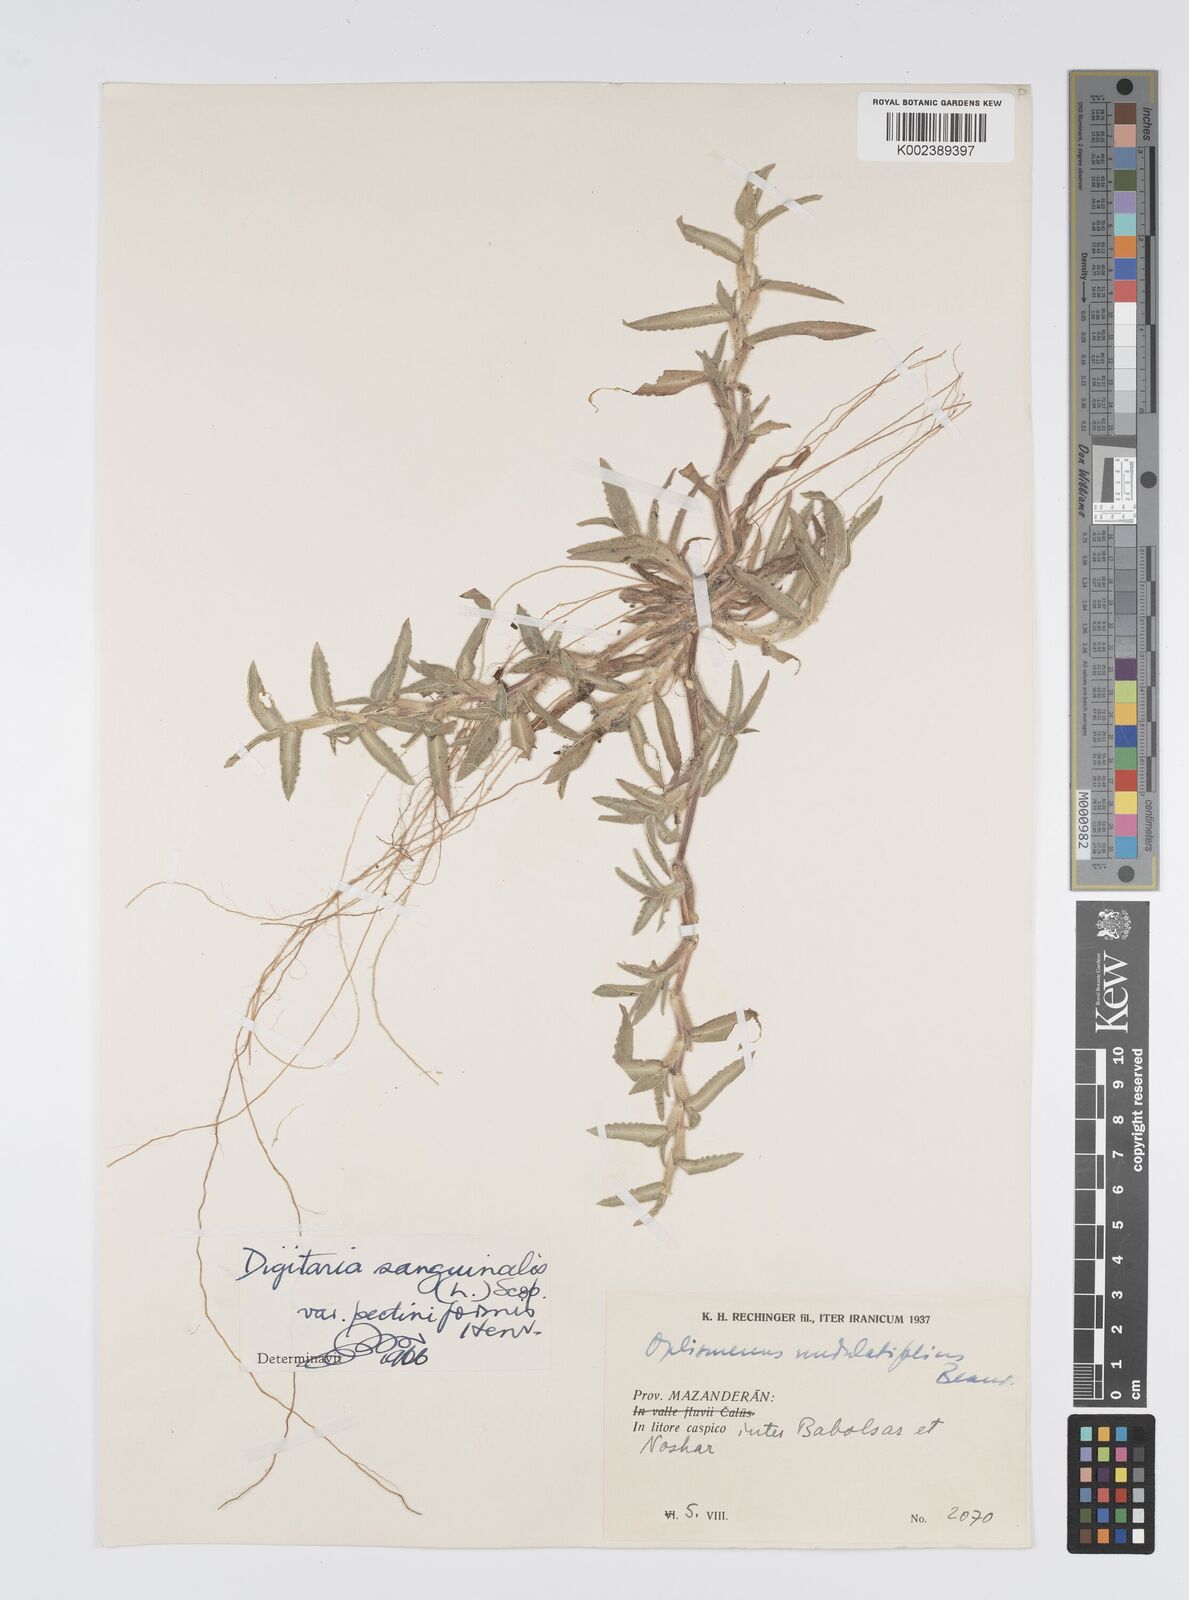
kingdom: Plantae
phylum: Tracheophyta
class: Liliopsida
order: Poales
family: Poaceae
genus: Digitaria
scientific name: Digitaria sanguinalis
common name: Hairy crabgrass
